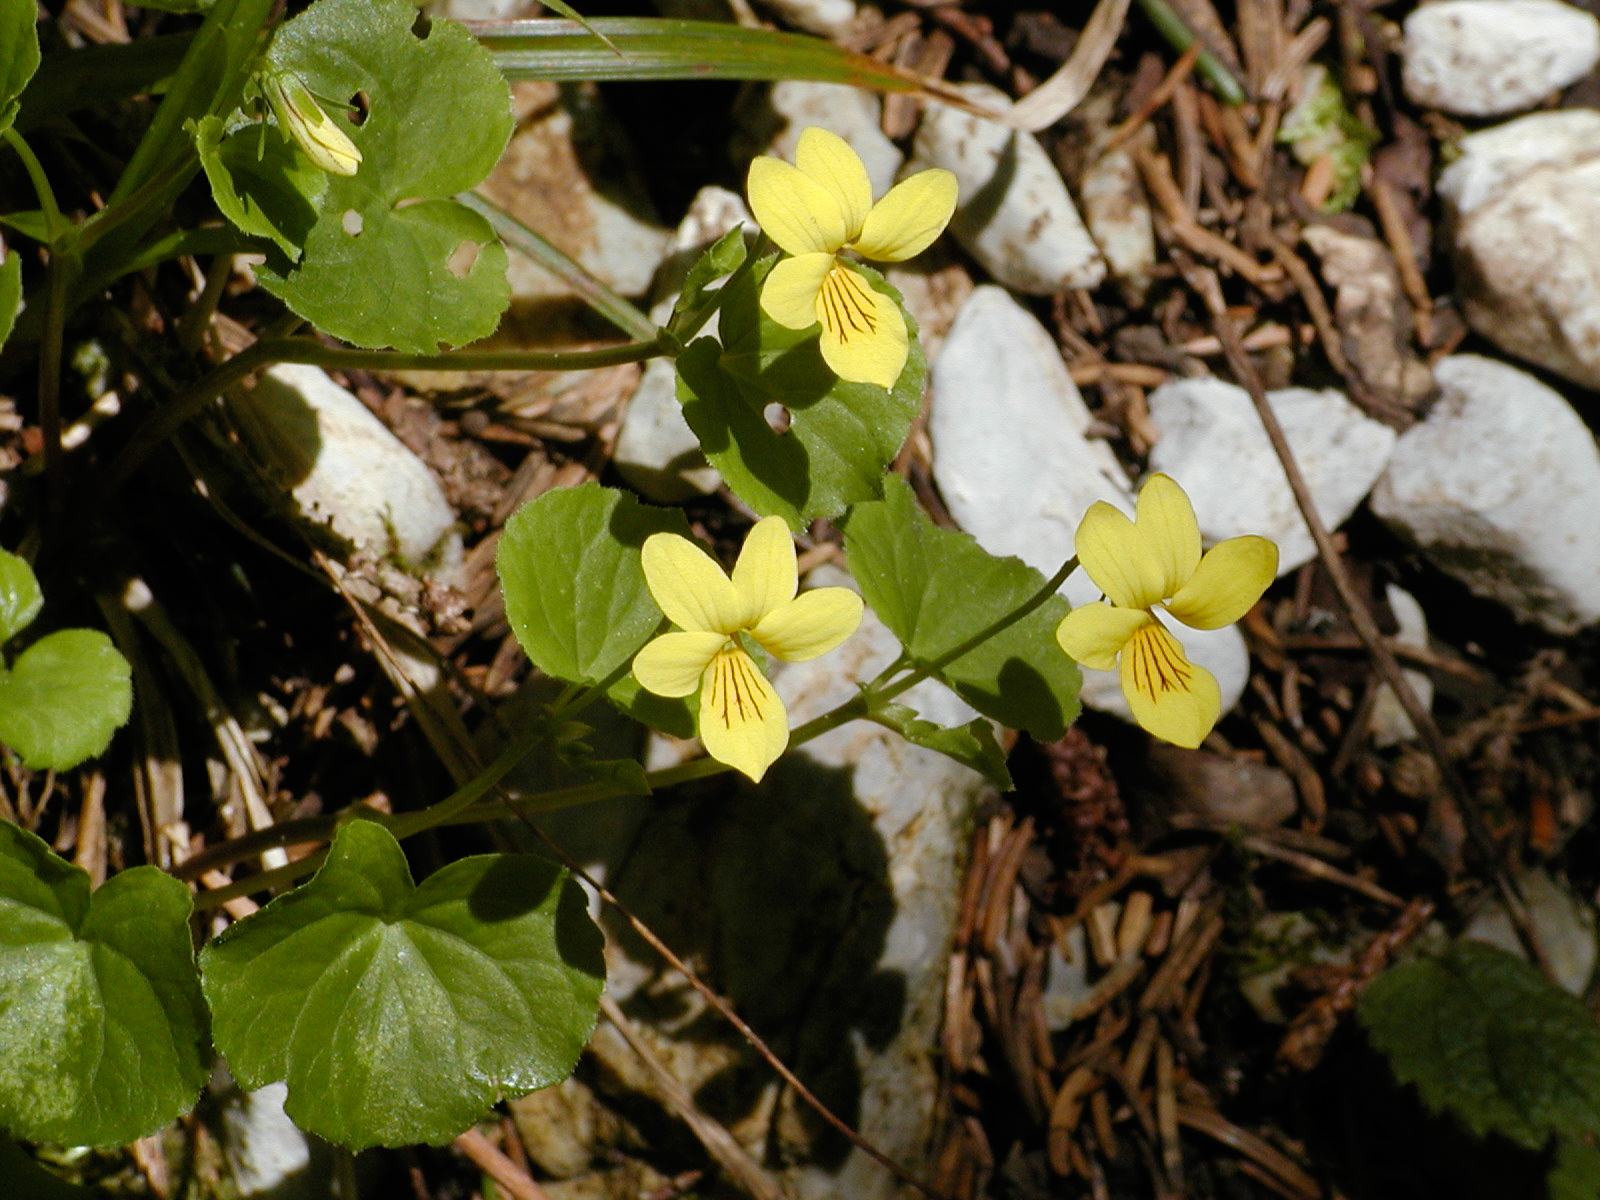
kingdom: Plantae
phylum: Tracheophyta
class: Magnoliopsida
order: Malpighiales
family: Violaceae
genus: Viola
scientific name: Viola biflora
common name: Alpine yellow violet
